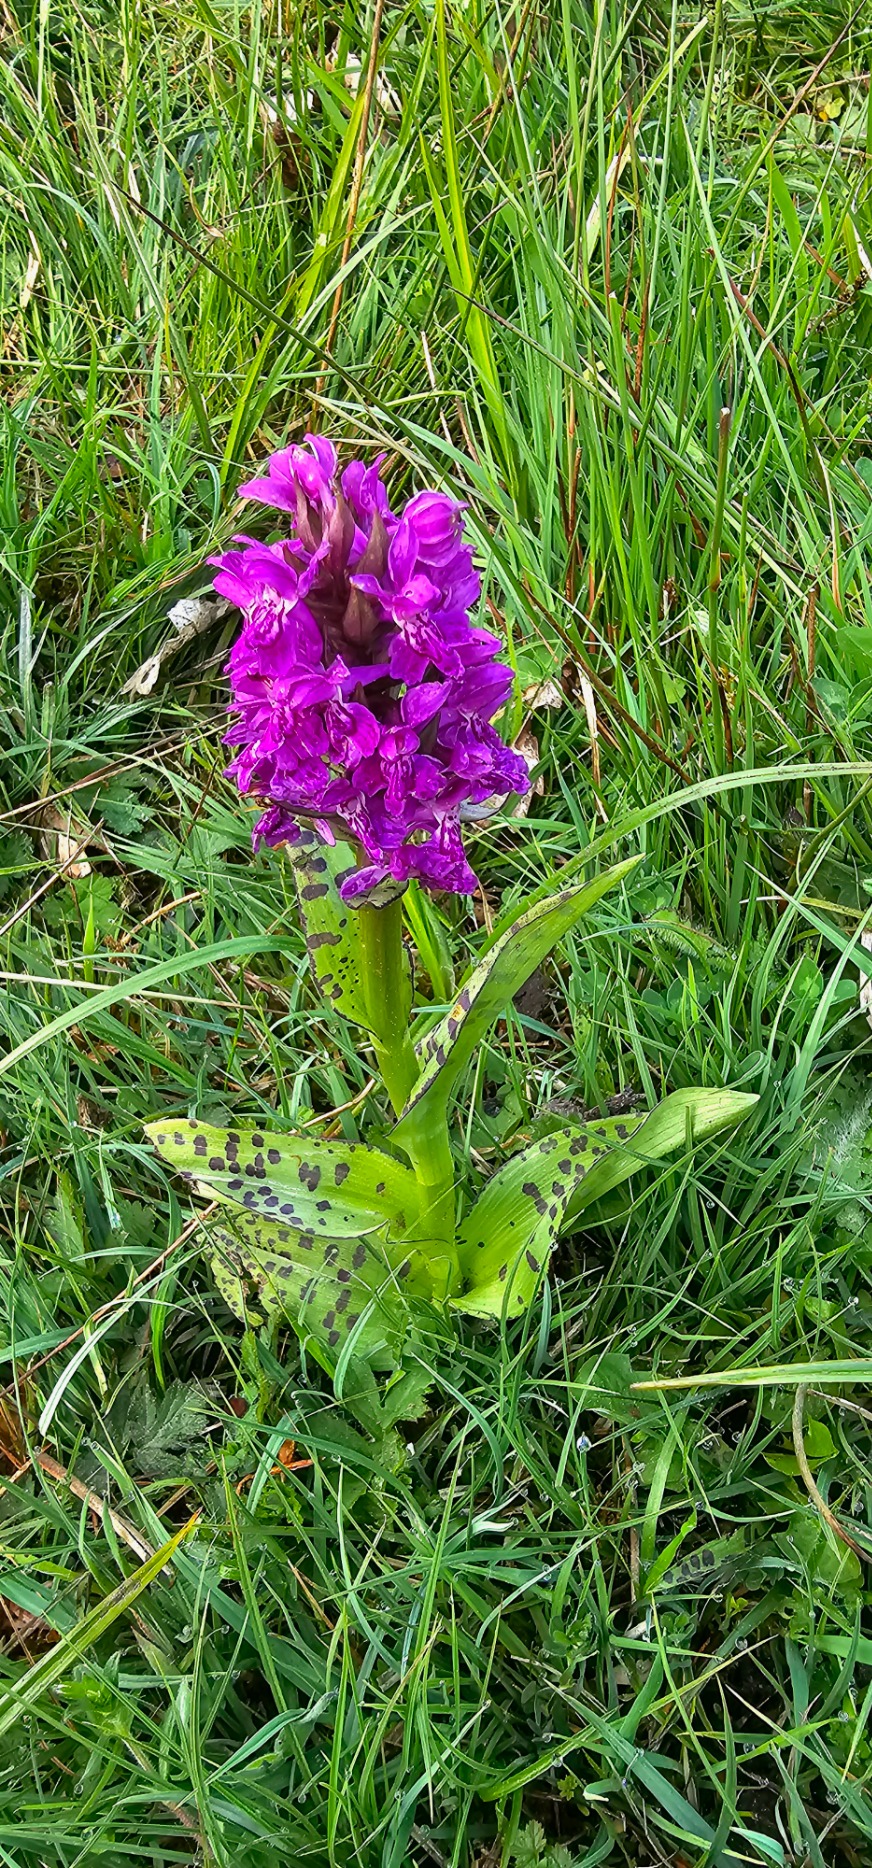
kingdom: Plantae
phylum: Tracheophyta
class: Liliopsida
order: Asparagales
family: Orchidaceae
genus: Dactylorhiza
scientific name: Dactylorhiza majalis
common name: Maj-gøgeurt
